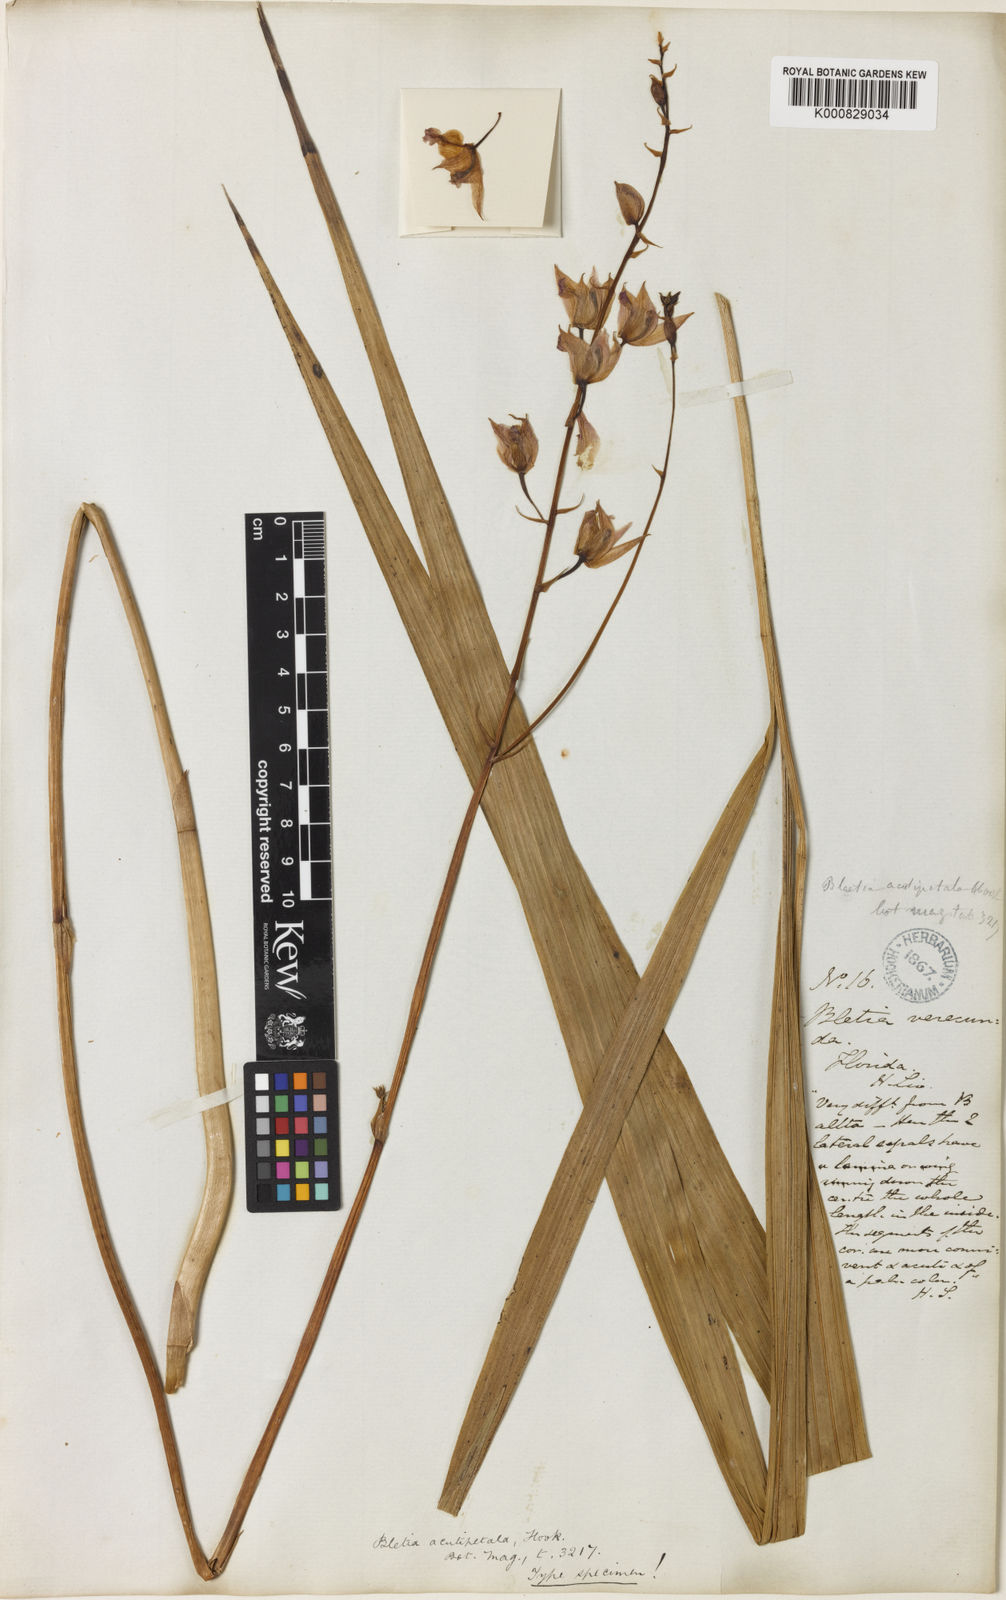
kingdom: Plantae
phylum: Tracheophyta
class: Liliopsida
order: Asparagales
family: Orchidaceae
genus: Bletia
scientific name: Bletia purpurea
